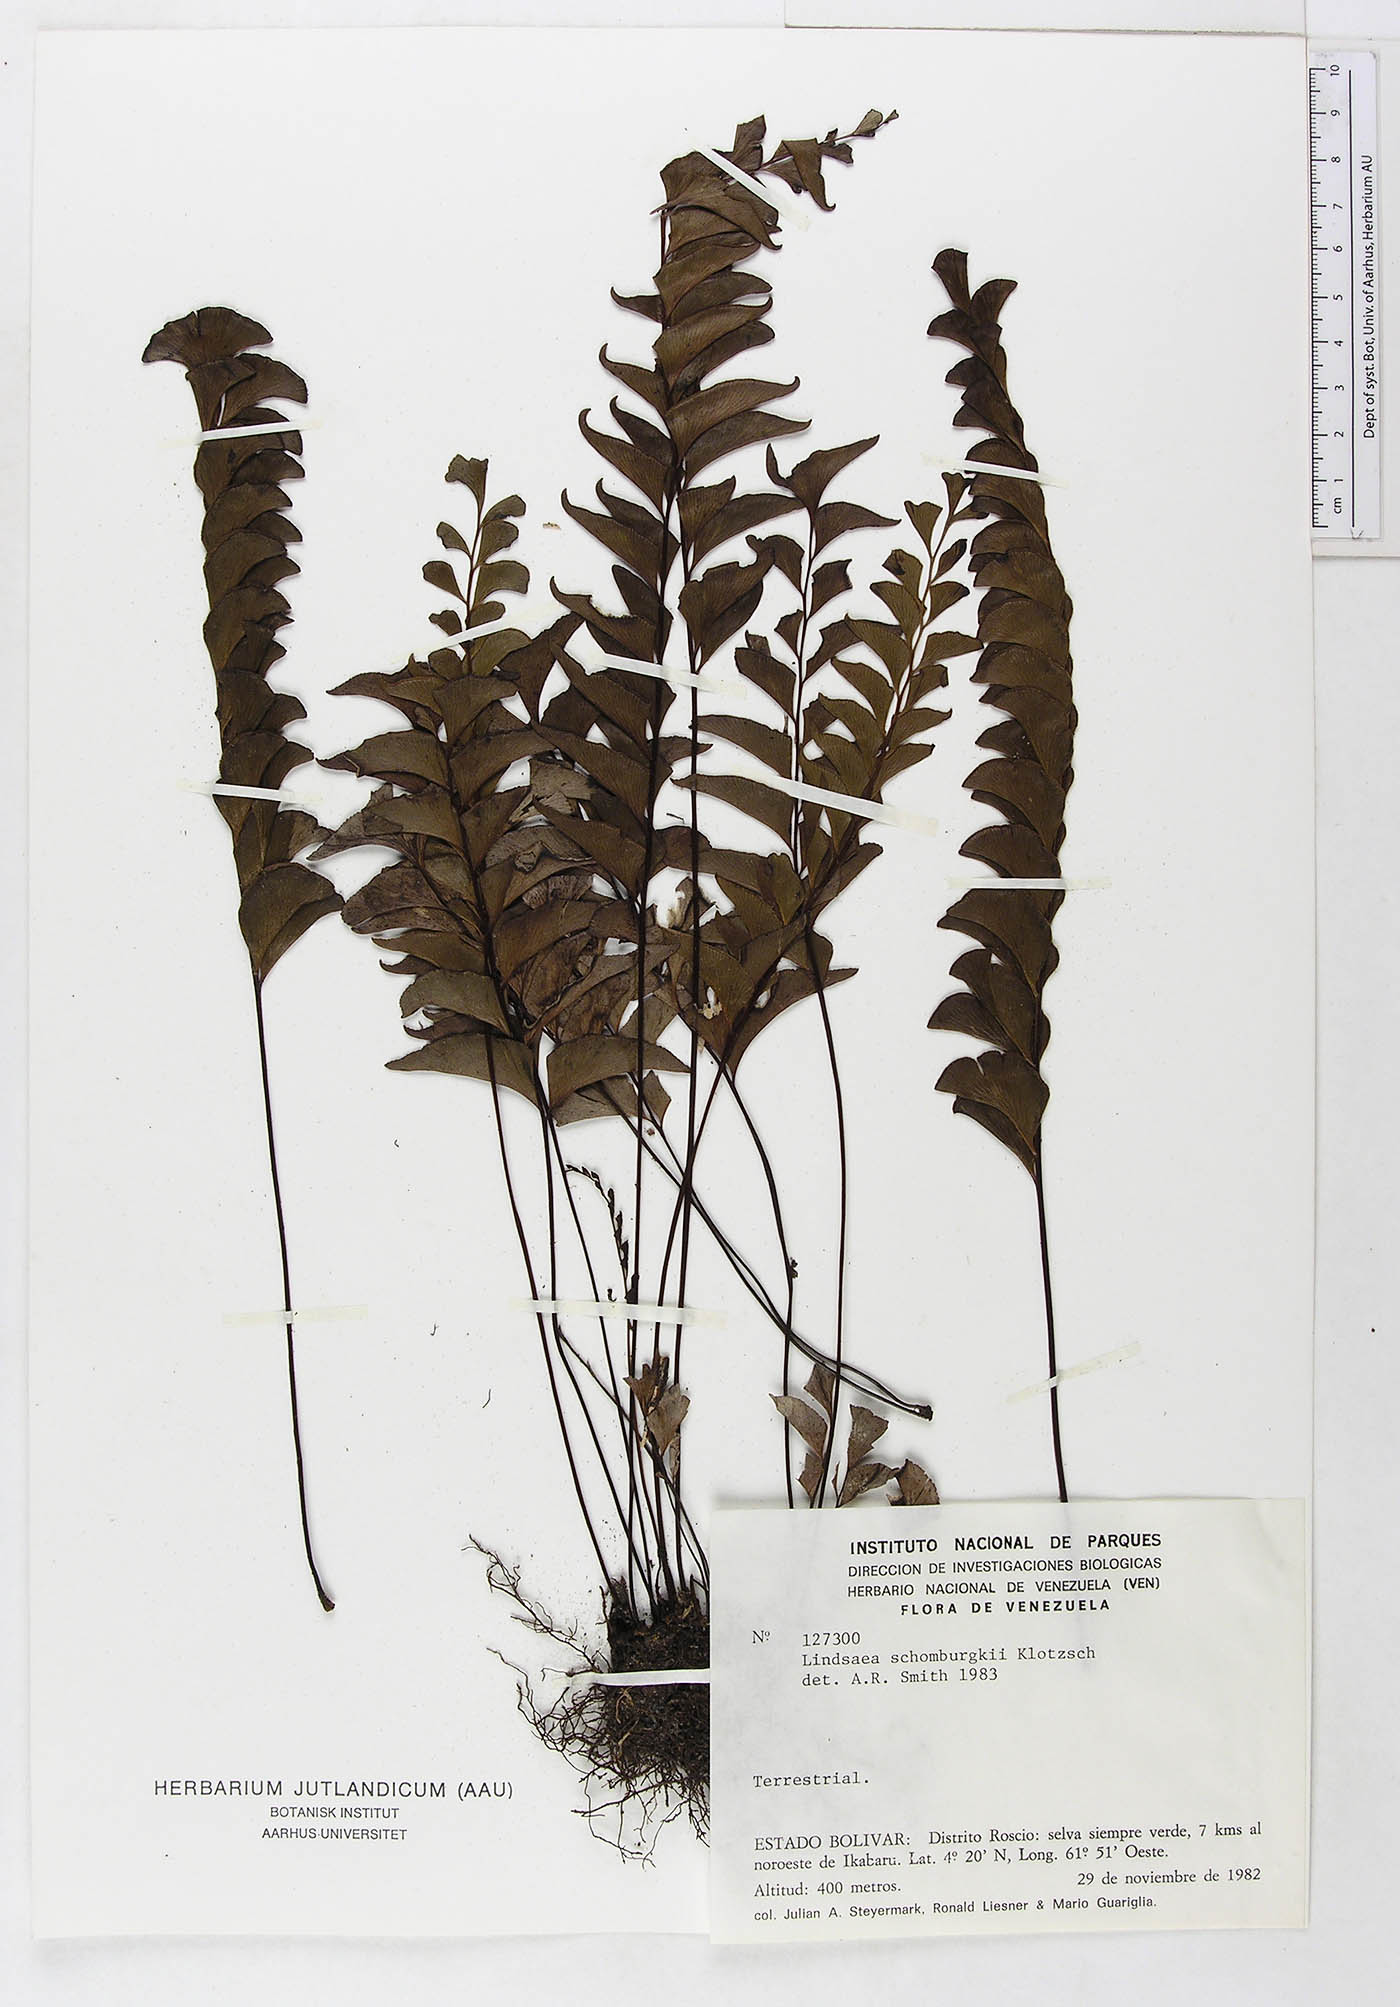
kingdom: Plantae
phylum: Tracheophyta
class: Polypodiopsida
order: Polypodiales
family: Dennstaedtiaceae
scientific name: Dennstaedtiaceae
